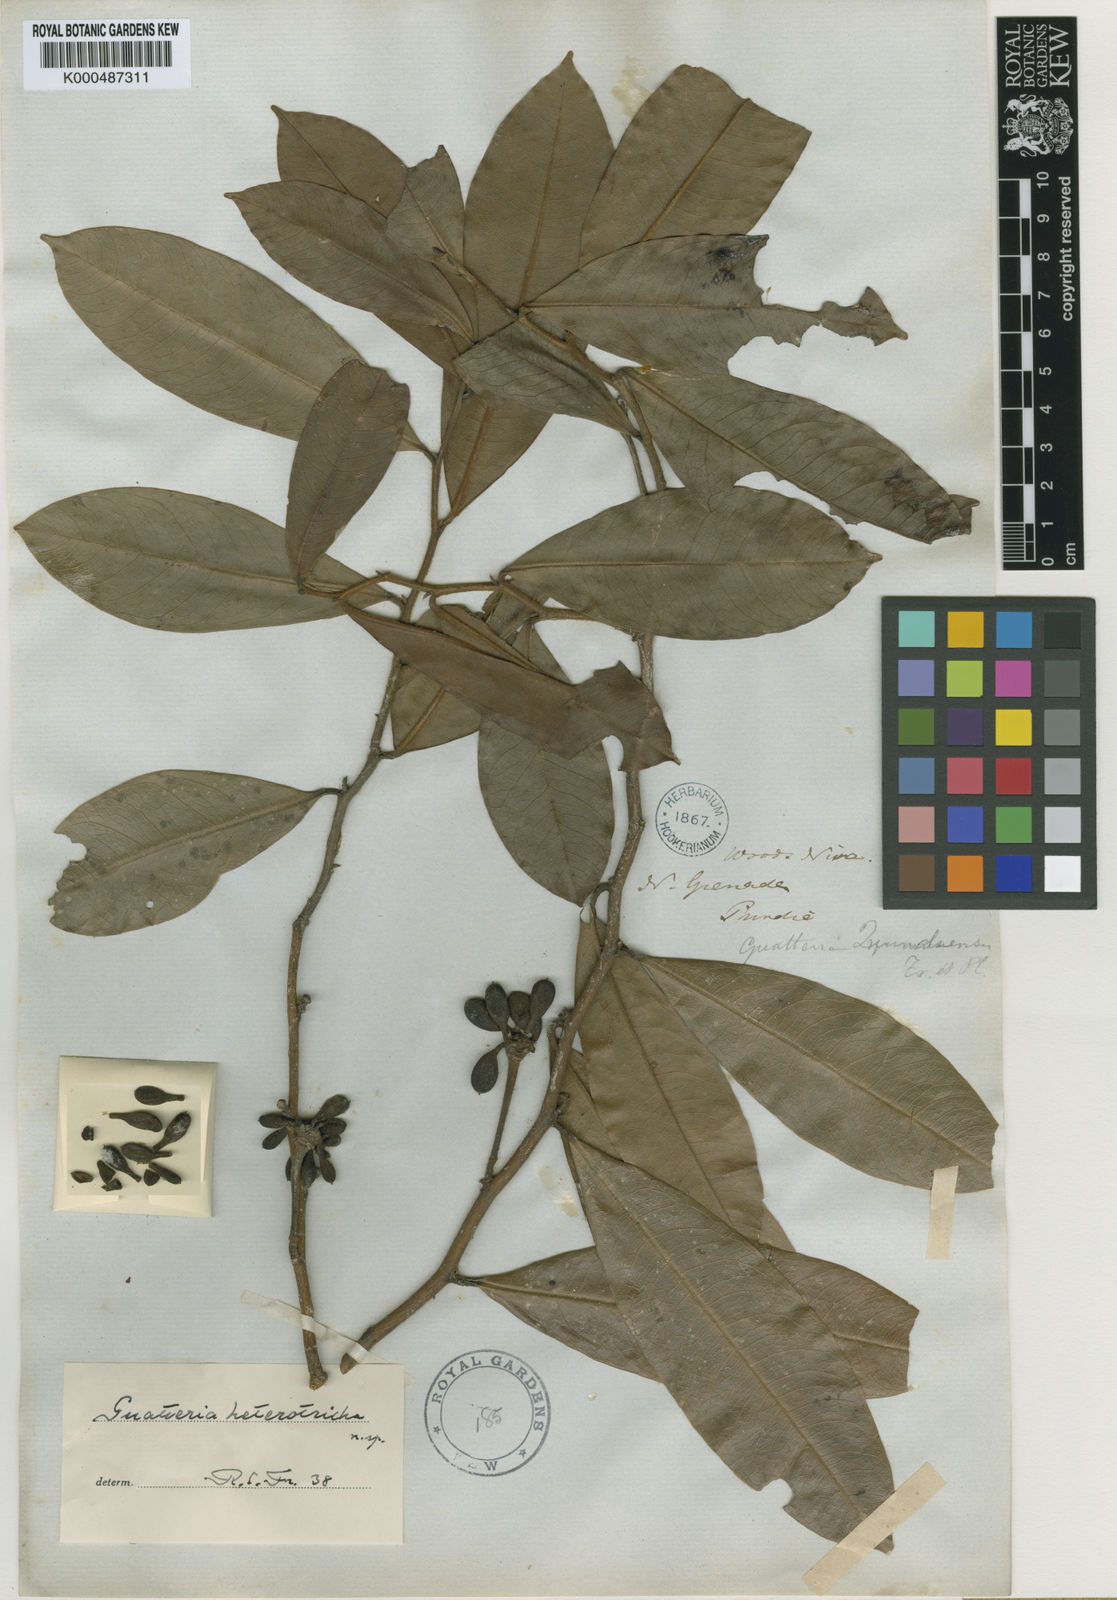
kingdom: Plantae
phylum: Tracheophyta
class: Magnoliopsida
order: Magnoliales
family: Annonaceae
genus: Guatteria
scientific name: Guatteria goudotiana
